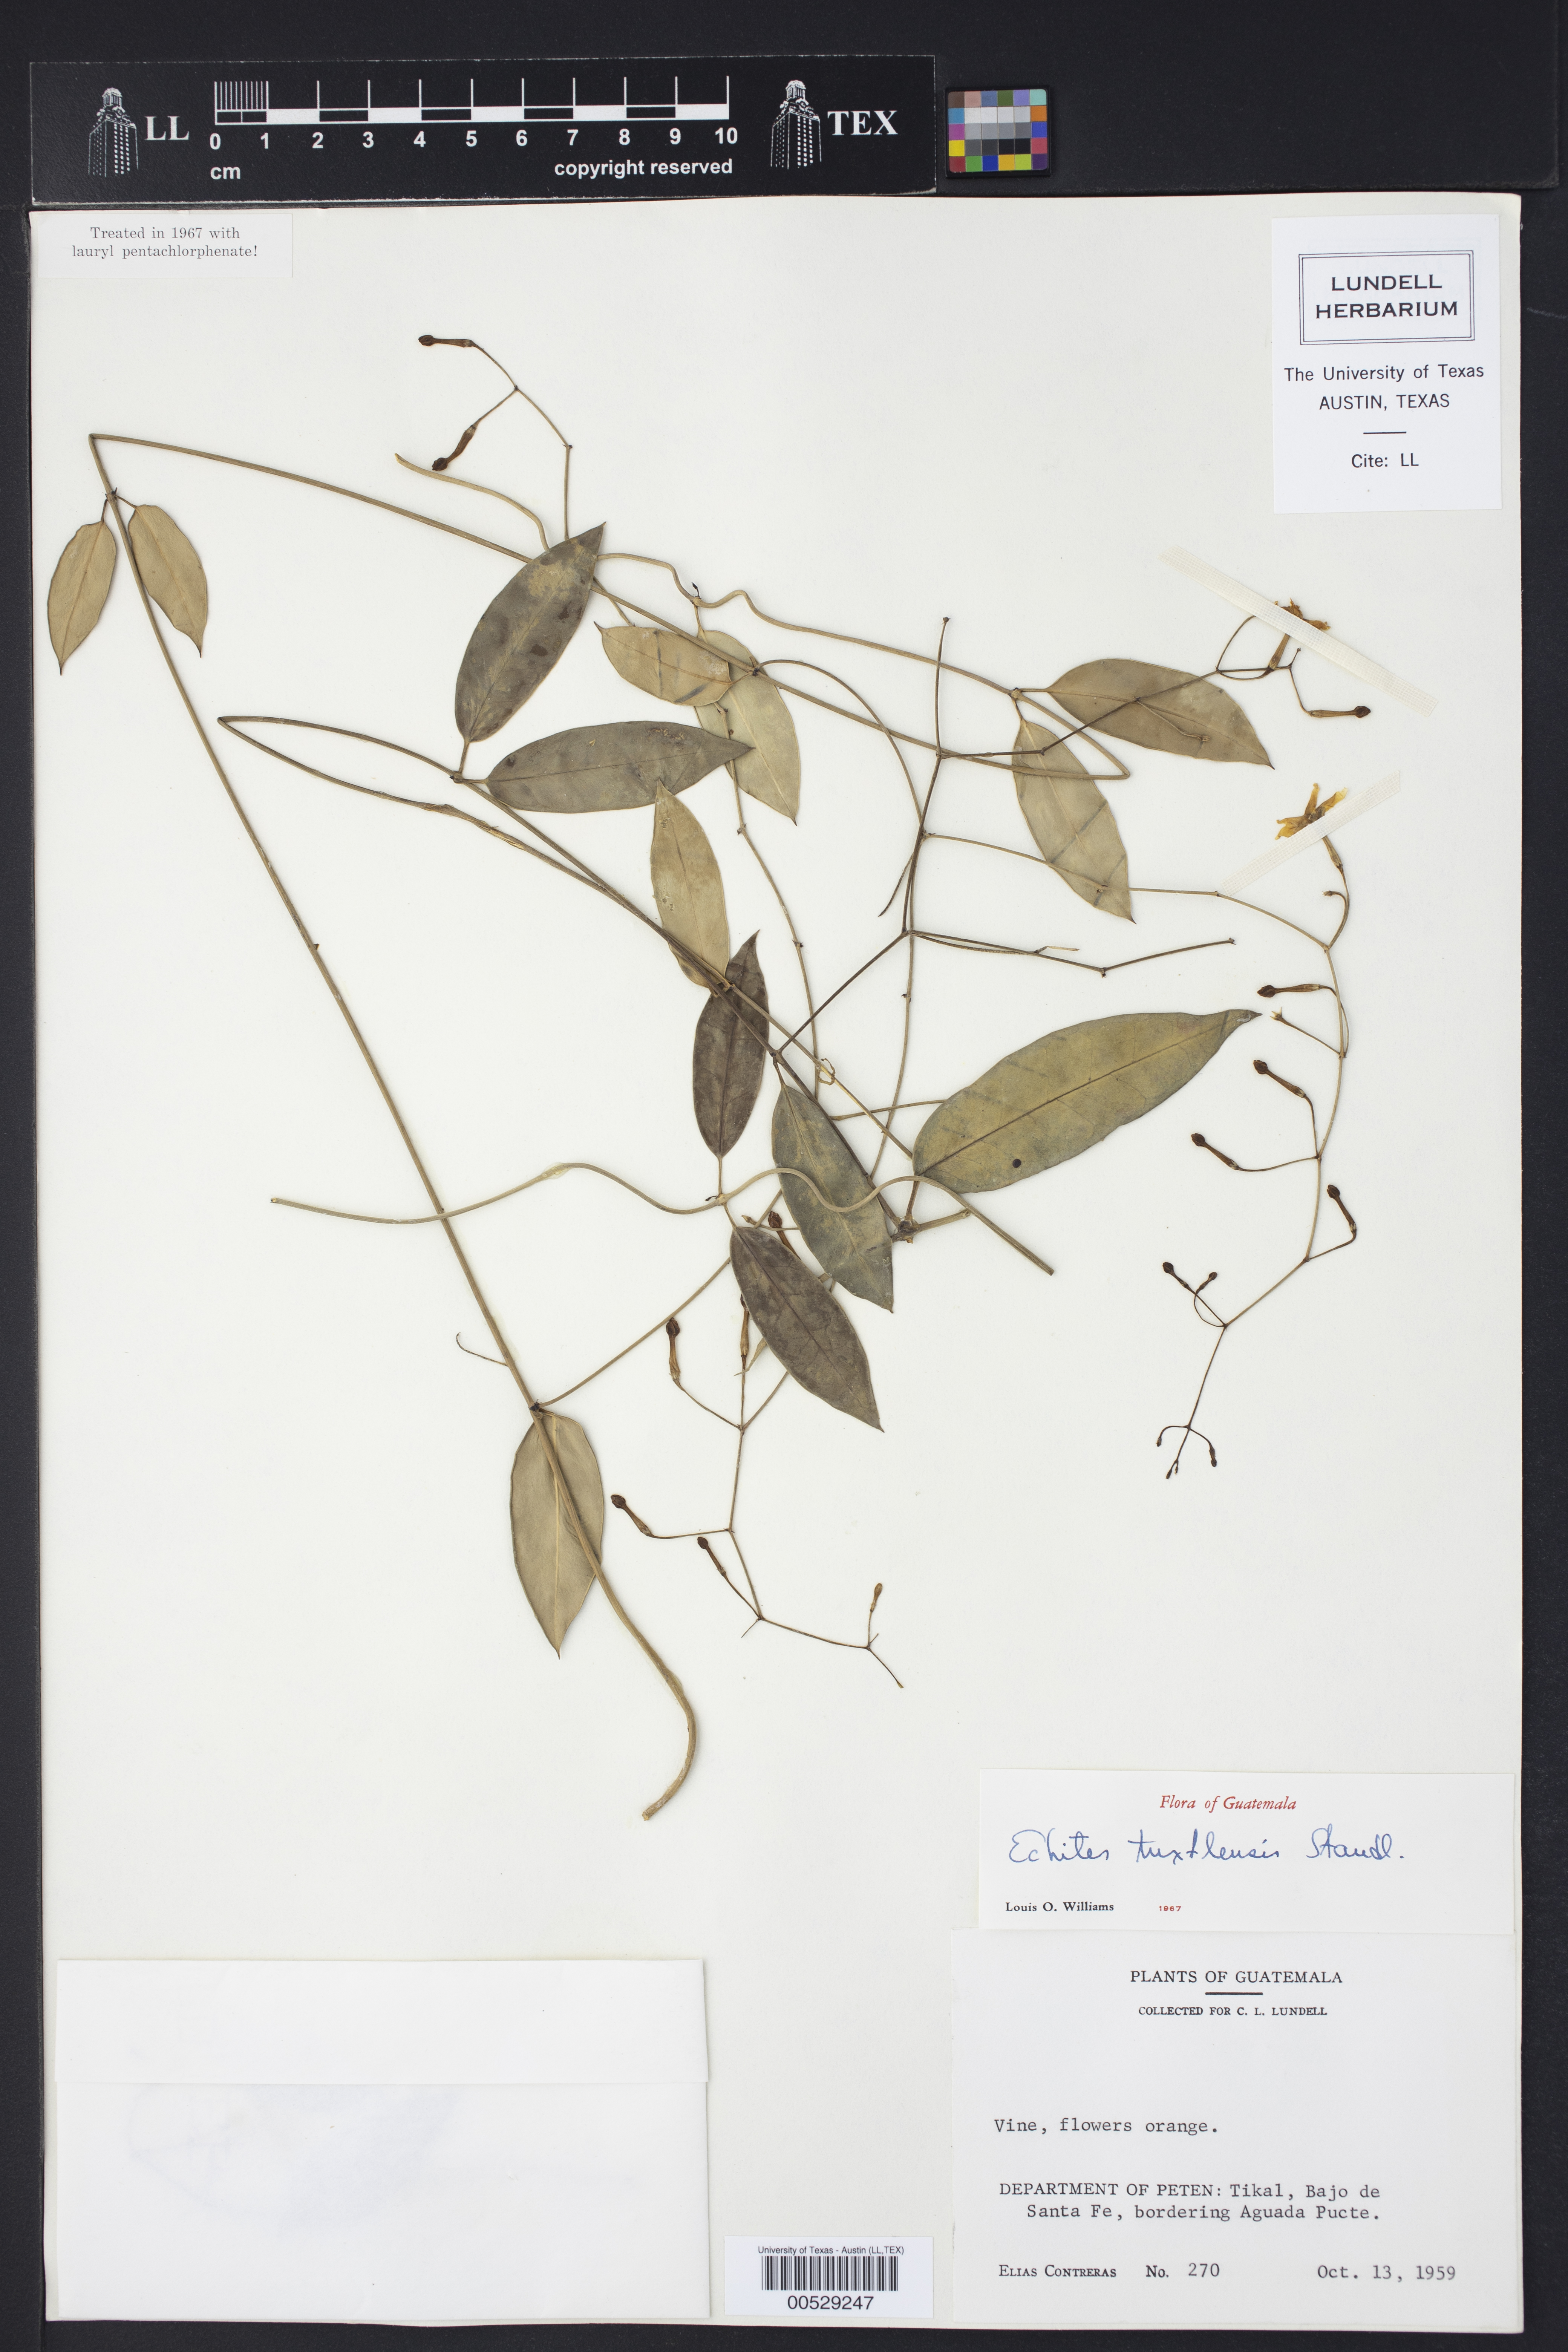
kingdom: Plantae
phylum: Tracheophyta
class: Magnoliopsida
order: Gentianales
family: Apocynaceae
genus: Echites
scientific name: Echites tuxtlensis
